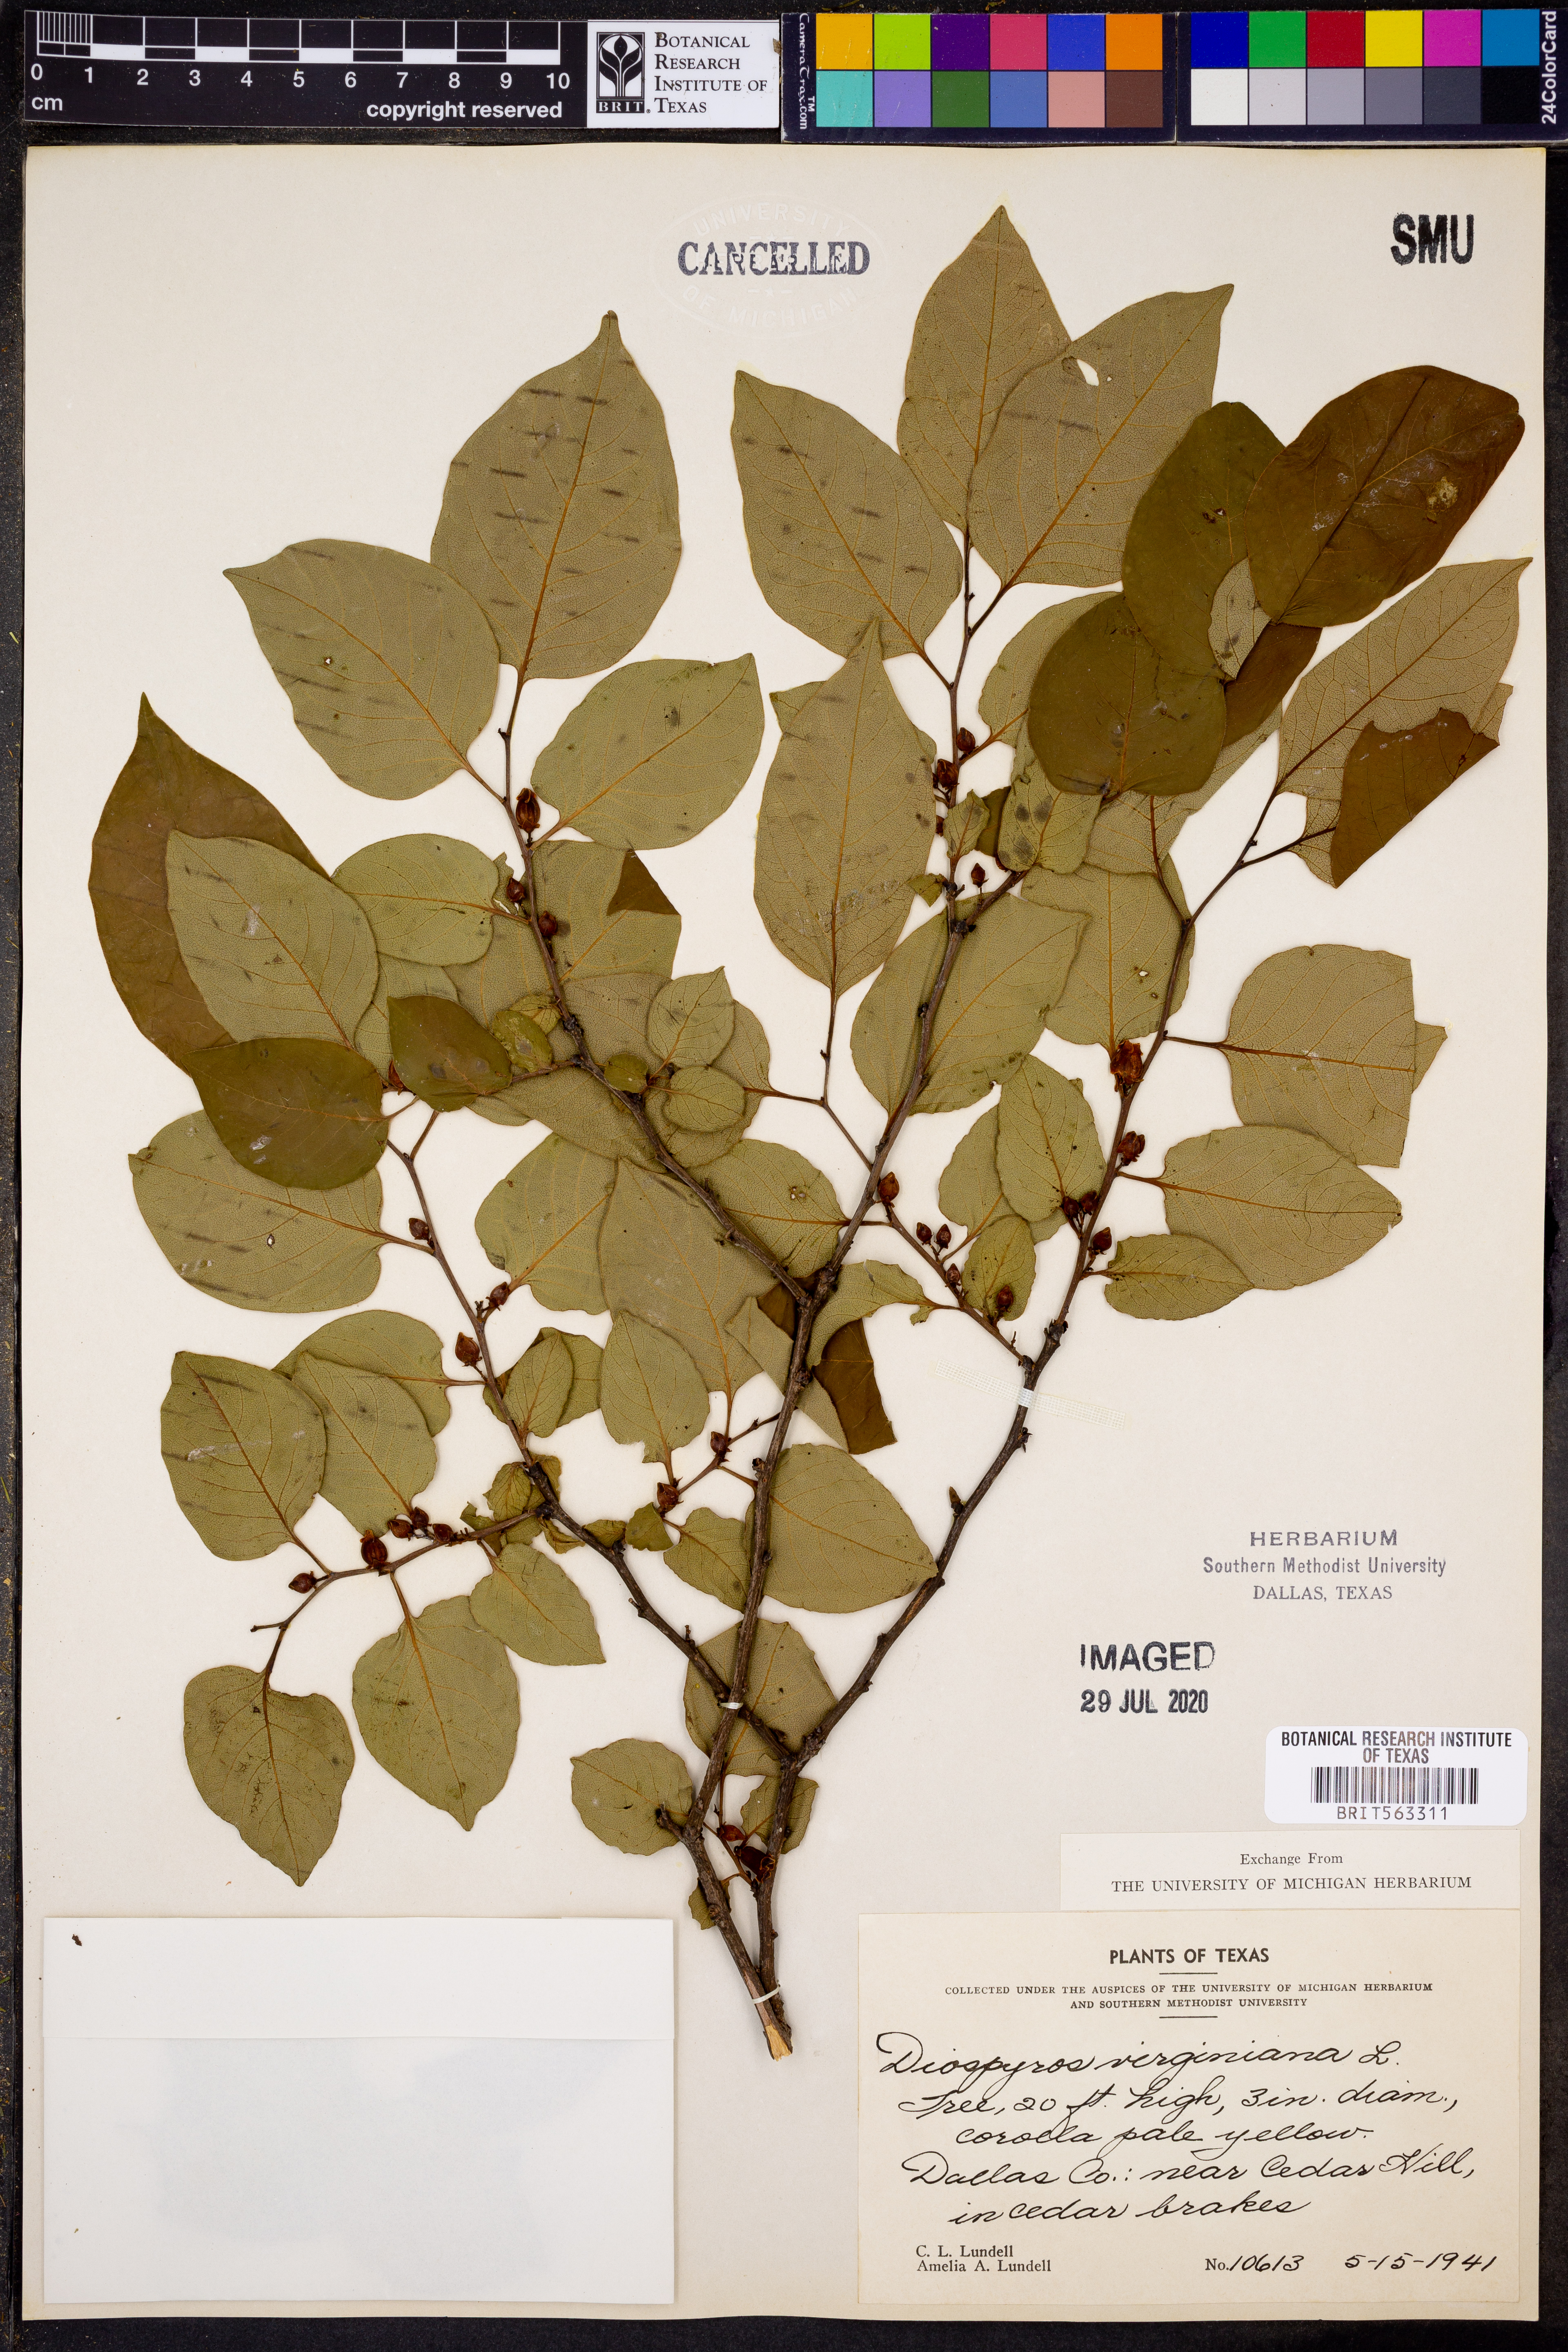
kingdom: Plantae
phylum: Tracheophyta
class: Magnoliopsida
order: Ericales
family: Ebenaceae
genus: Diospyros
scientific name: Diospyros virginiana
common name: Persimmon
